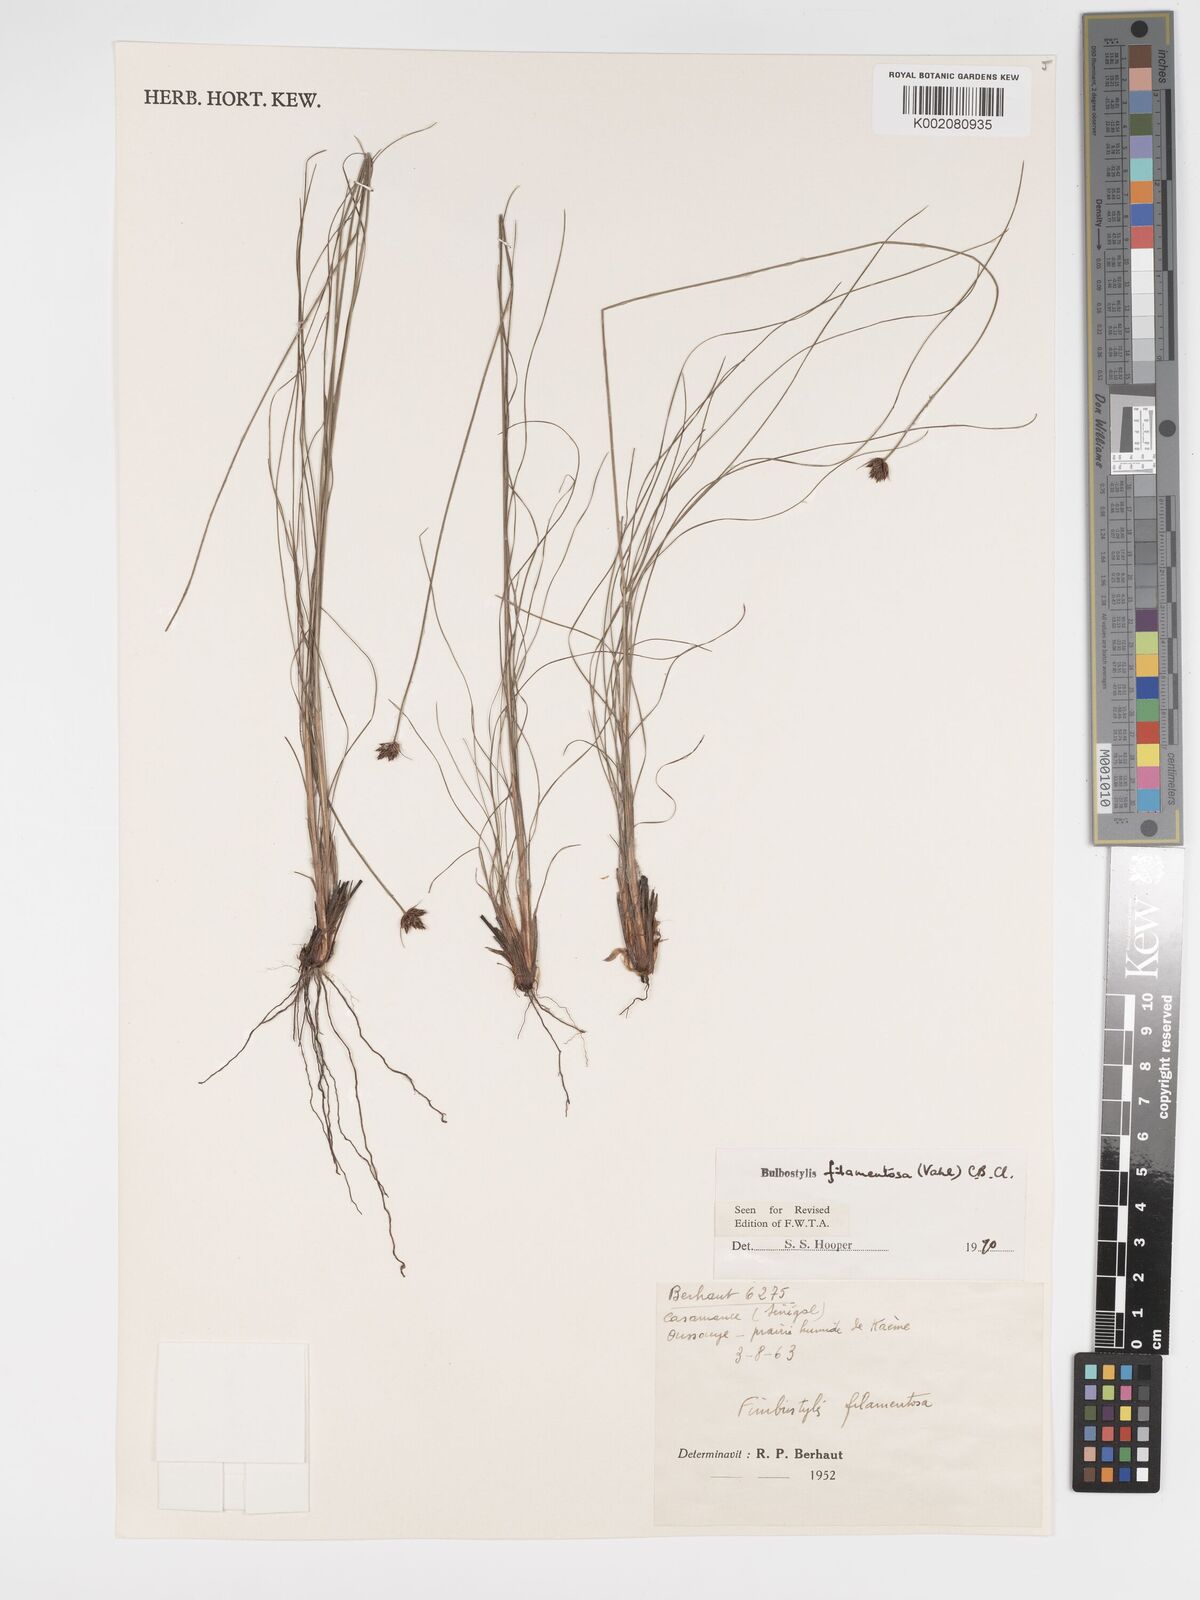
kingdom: Plantae
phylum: Tracheophyta
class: Liliopsida
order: Poales
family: Cyperaceae
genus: Bulbostylis
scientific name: Bulbostylis filamentosa
